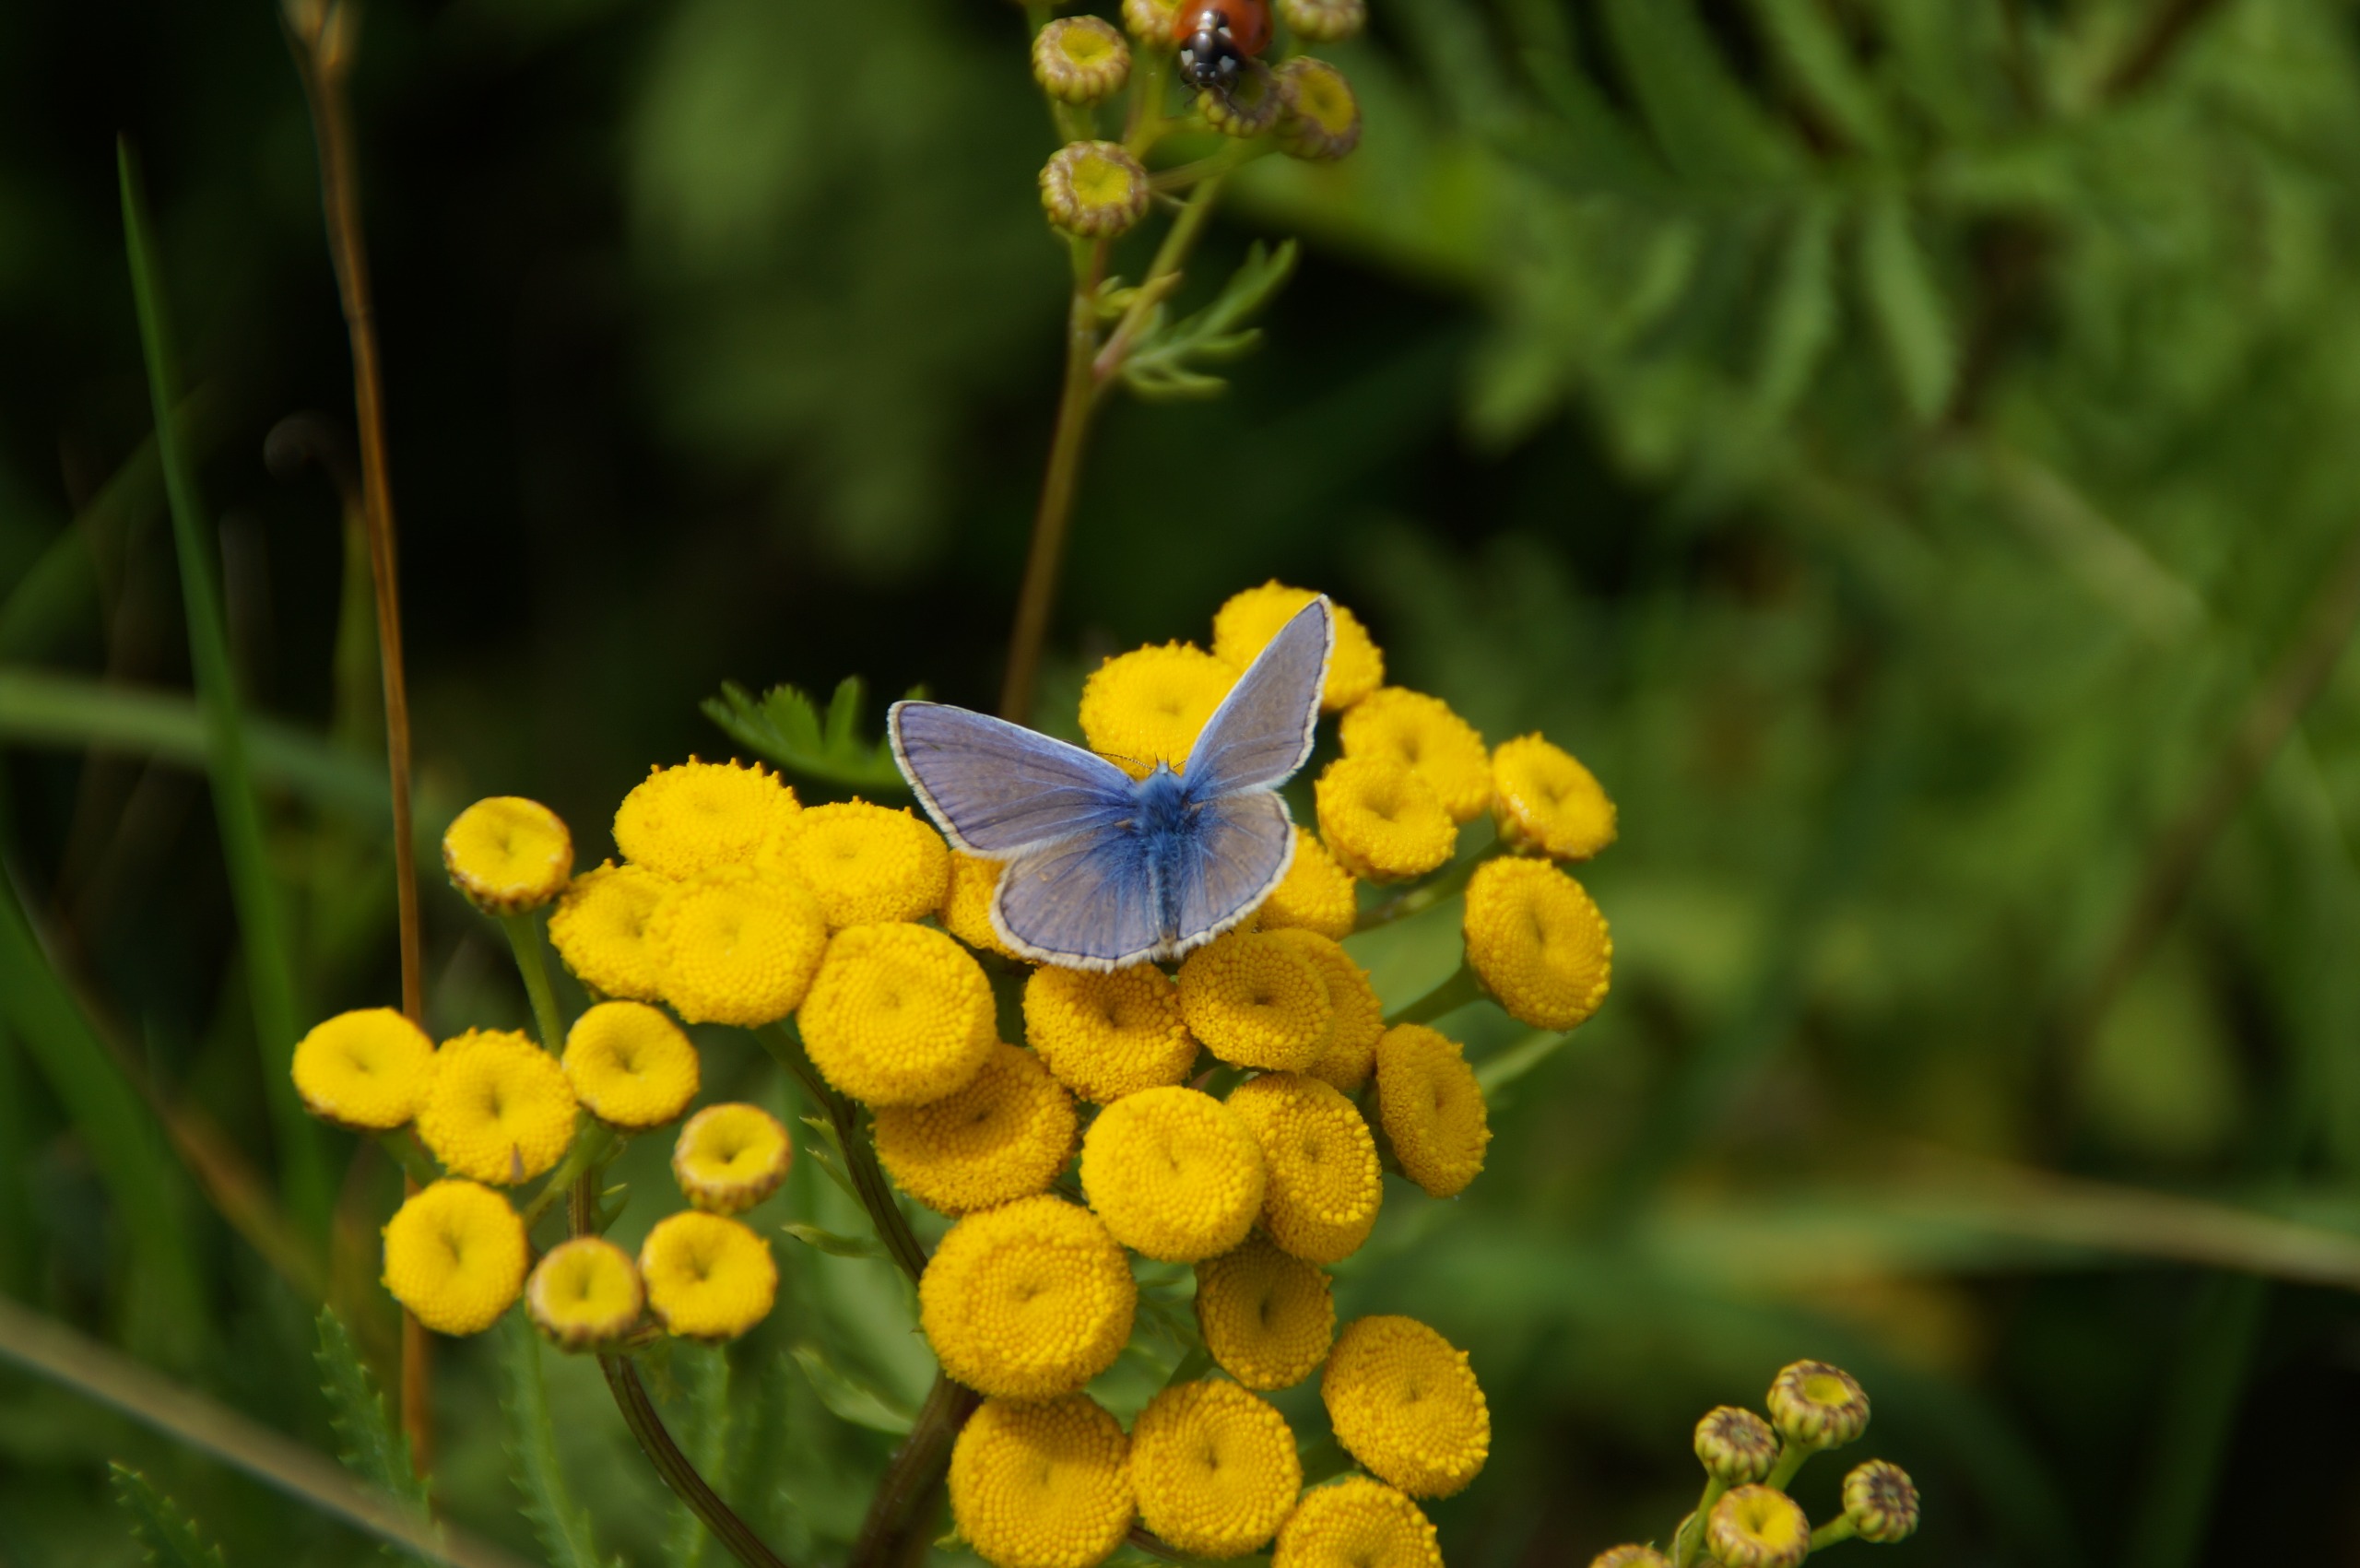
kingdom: Animalia
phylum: Arthropoda
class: Insecta
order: Lepidoptera
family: Lycaenidae
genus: Polyommatus
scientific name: Polyommatus icarus
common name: Almindelig blåfugl
